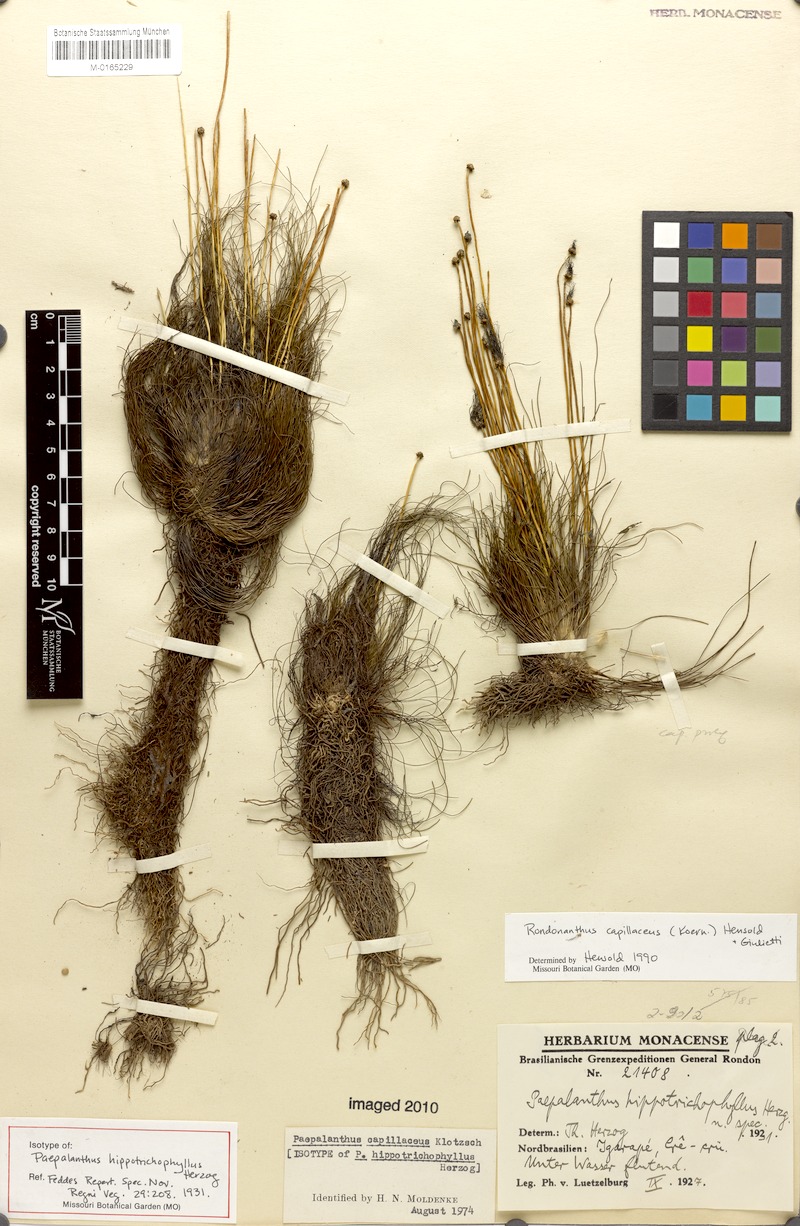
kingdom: Plantae
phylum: Tracheophyta
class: Liliopsida
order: Poales
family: Eriocaulaceae
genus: Rondonanthus
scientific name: Rondonanthus capillaceus
